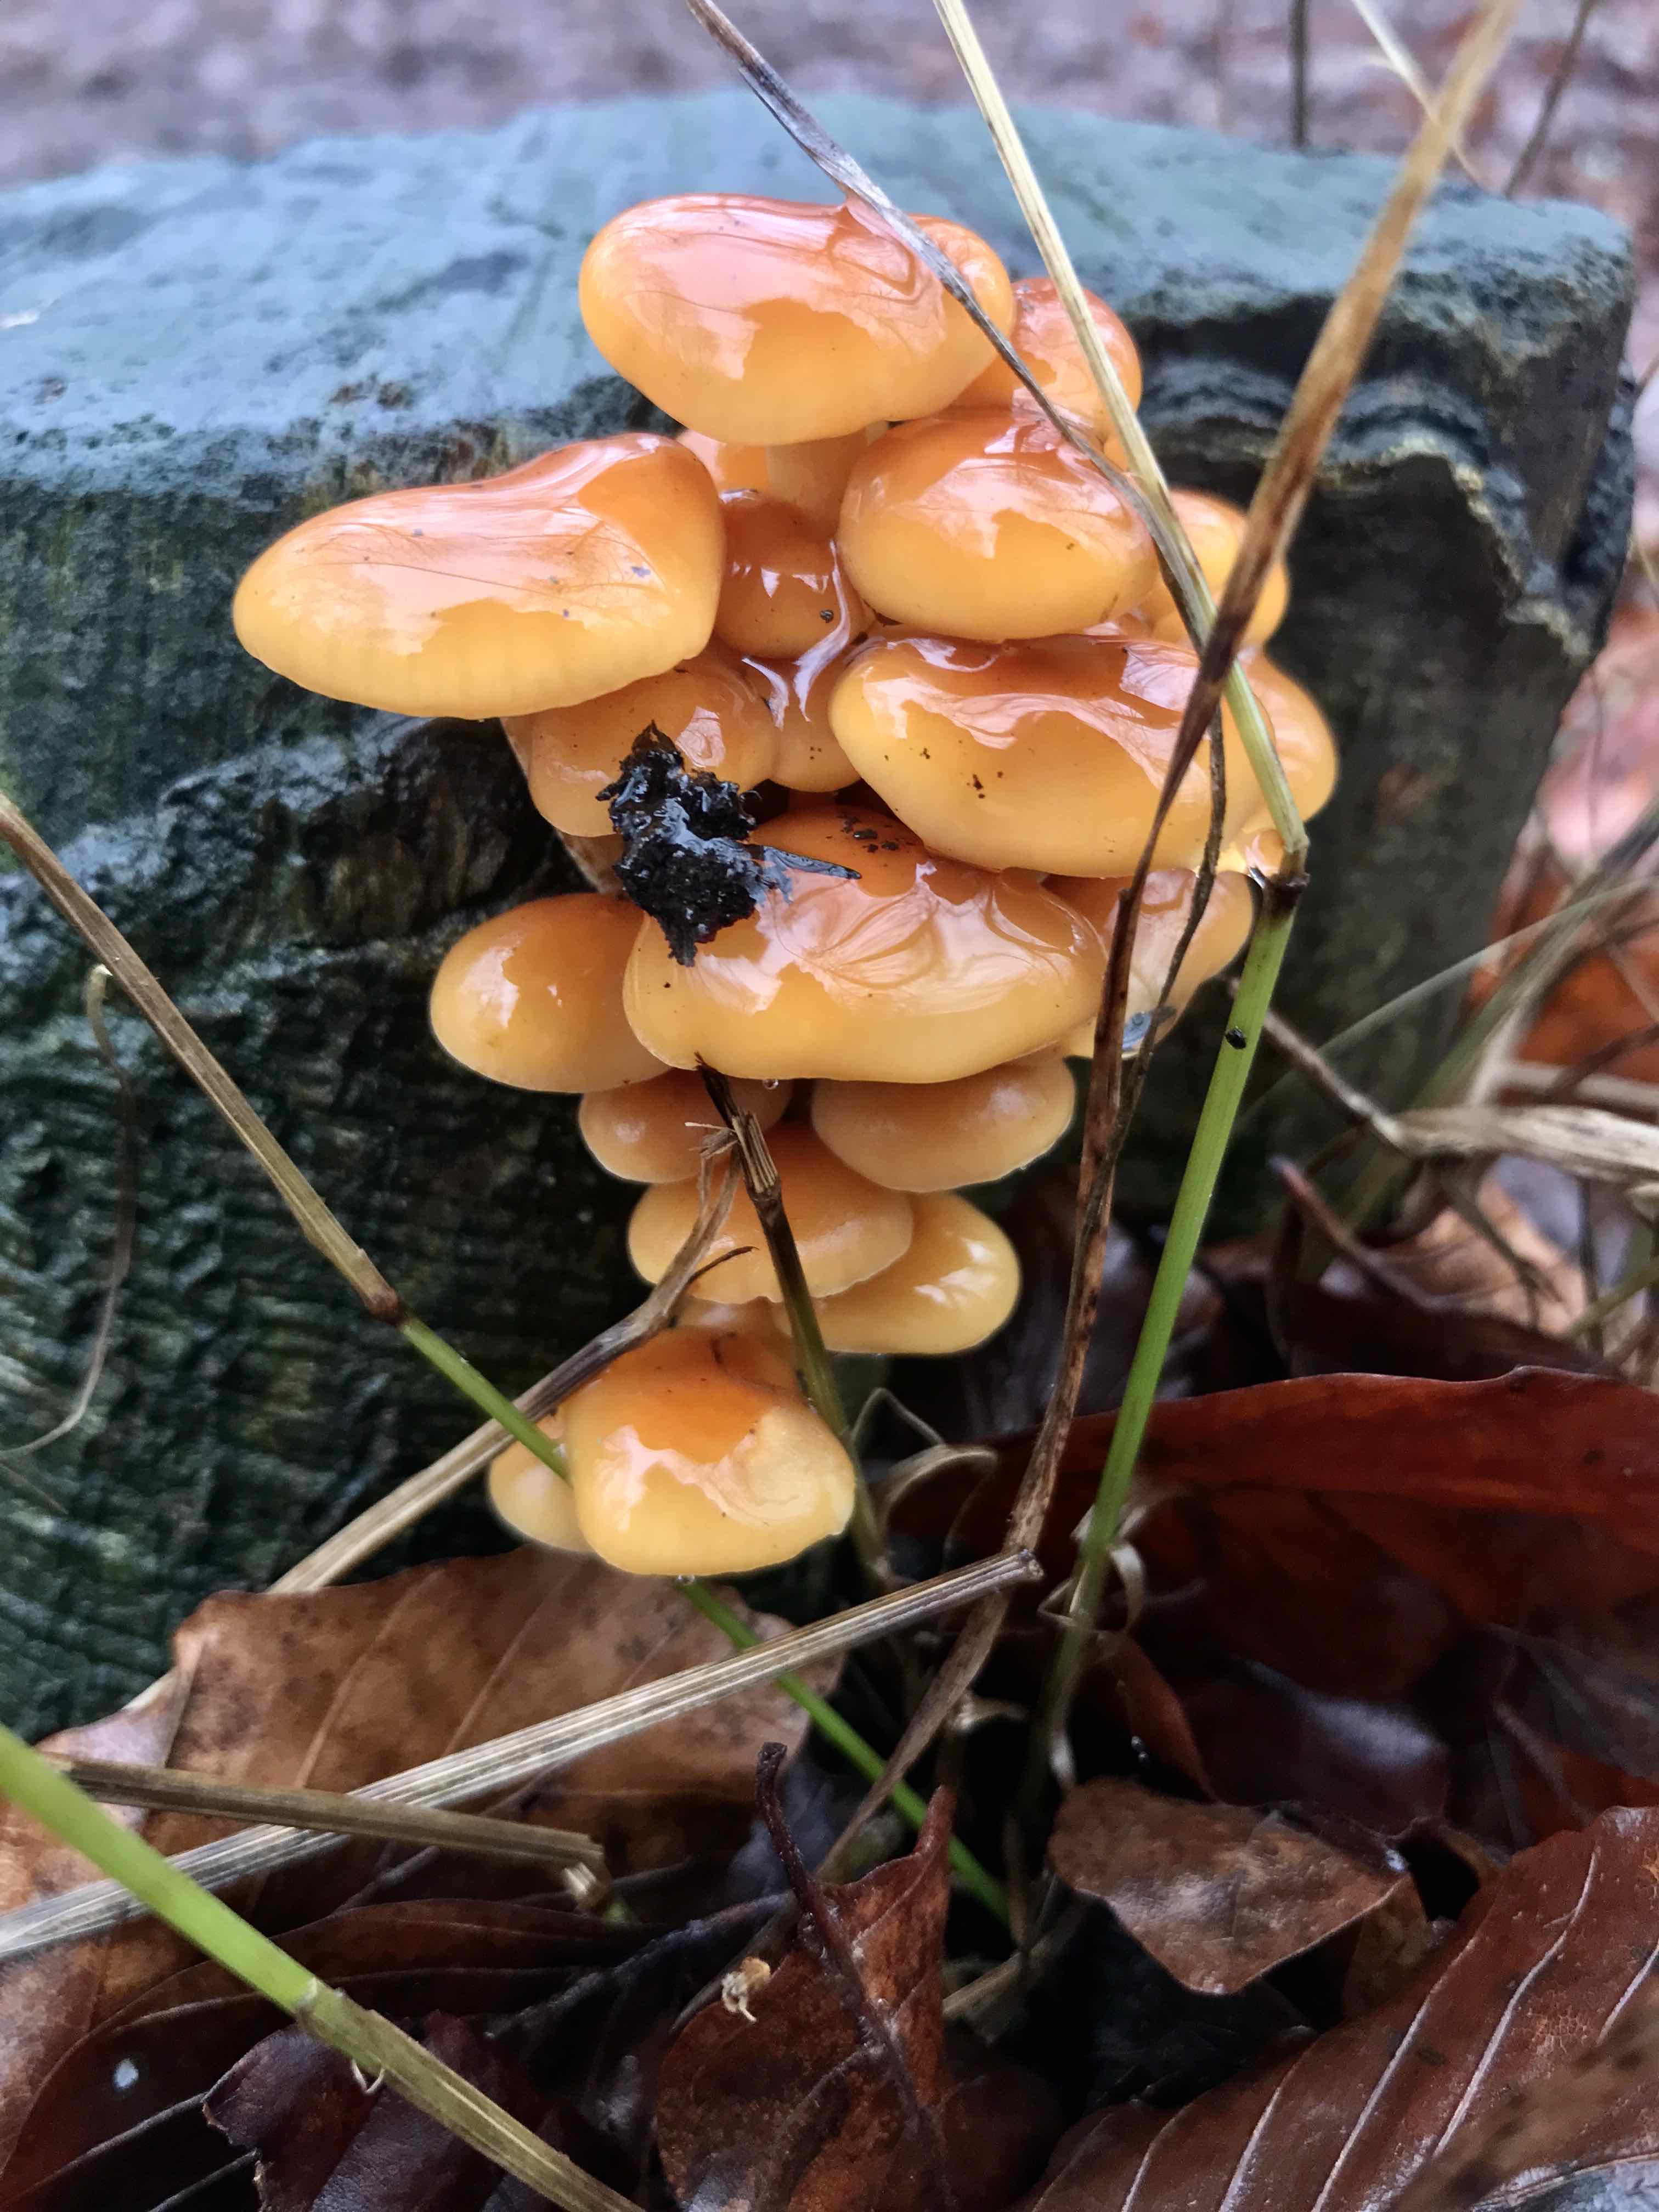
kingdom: Fungi
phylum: Basidiomycota
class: Agaricomycetes
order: Agaricales
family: Physalacriaceae
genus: Flammulina
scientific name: Flammulina velutipes
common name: gul fløjlsfod
